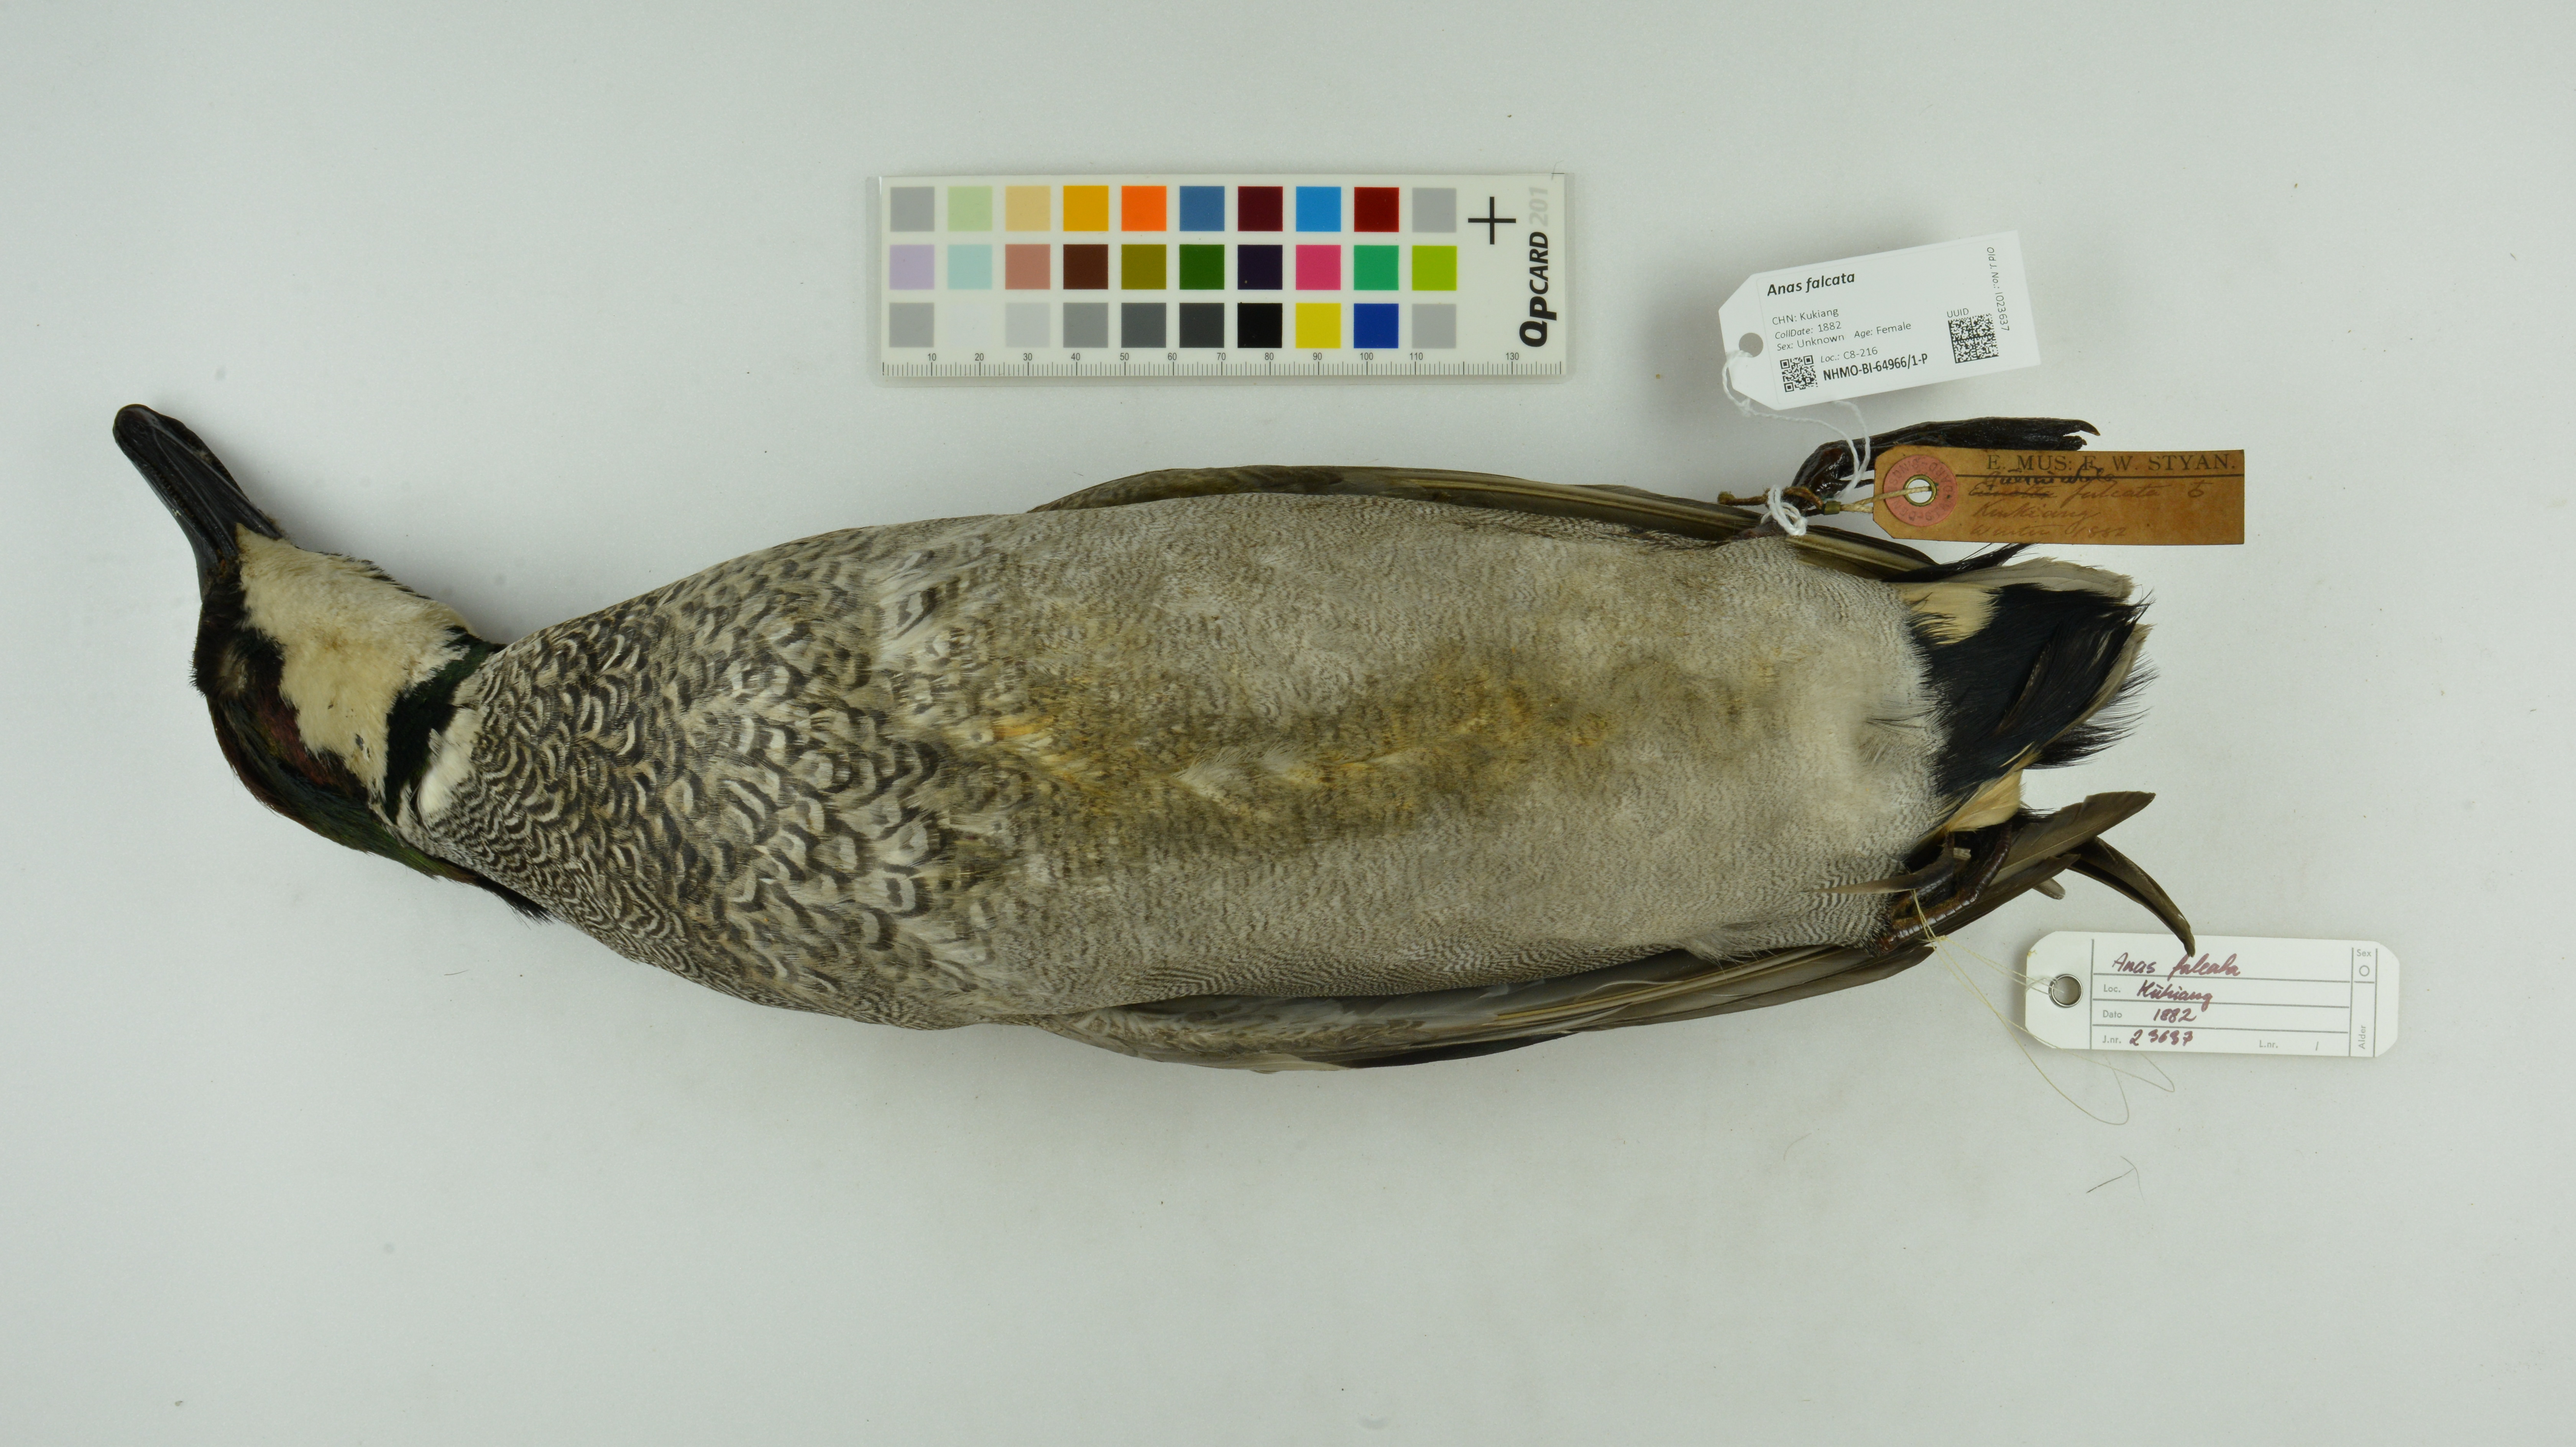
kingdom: Animalia
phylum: Chordata
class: Aves
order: Anseriformes
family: Anatidae
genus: Mareca
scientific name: Mareca falcata
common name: Falcated duck
